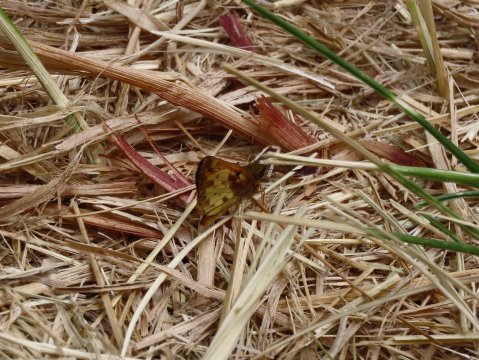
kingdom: Animalia
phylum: Arthropoda
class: Insecta
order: Lepidoptera
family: Hesperiidae
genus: Lon
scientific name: Lon zabulon
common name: Zabulon Skipper
